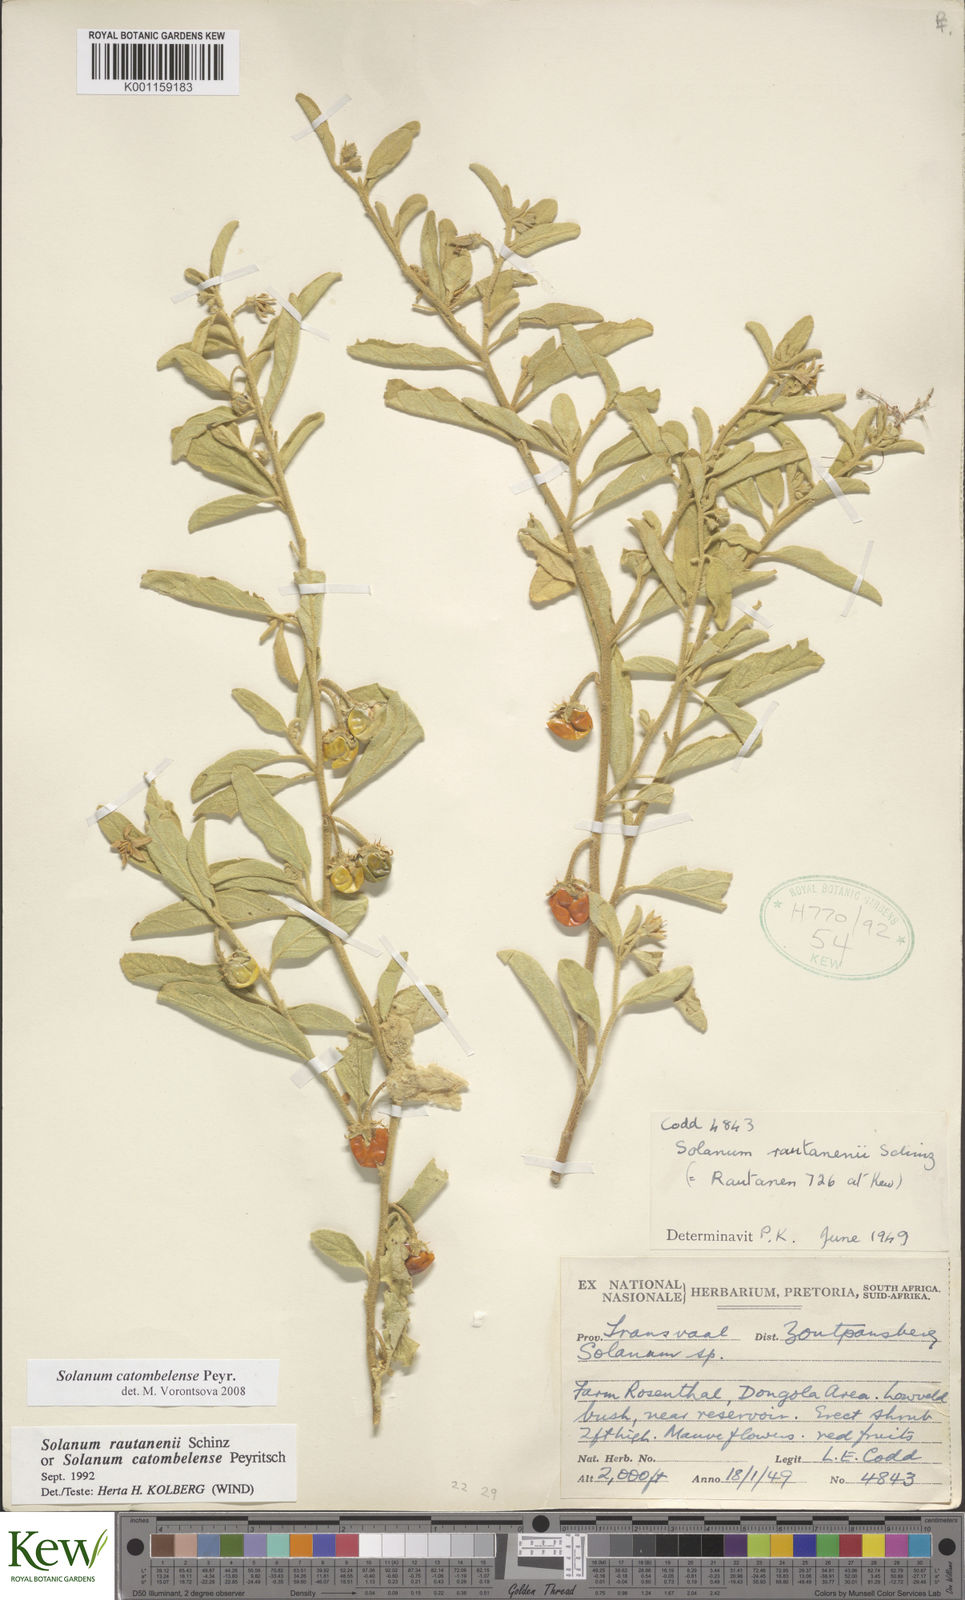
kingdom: Plantae
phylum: Tracheophyta
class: Magnoliopsida
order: Solanales
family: Solanaceae
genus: Solanum
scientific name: Solanum catombelense
